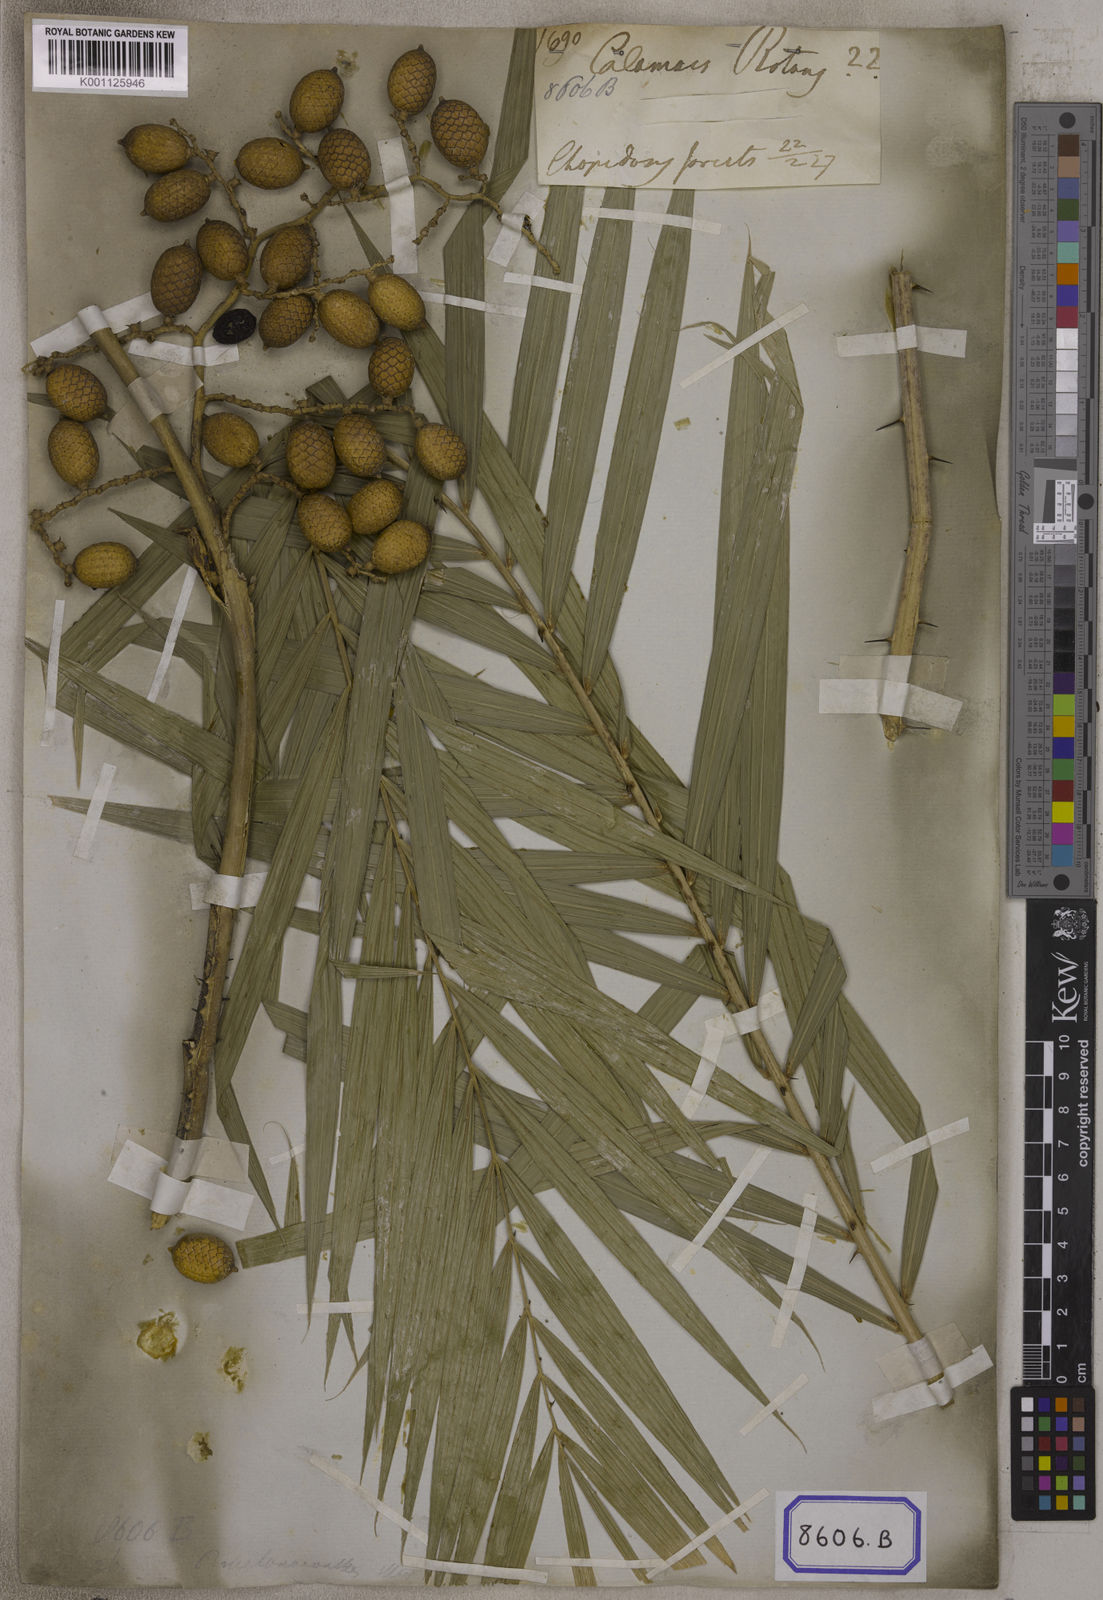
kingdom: Plantae
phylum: Tracheophyta
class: Liliopsida
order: Arecales
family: Arecaceae
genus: Calamus
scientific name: Calamus
